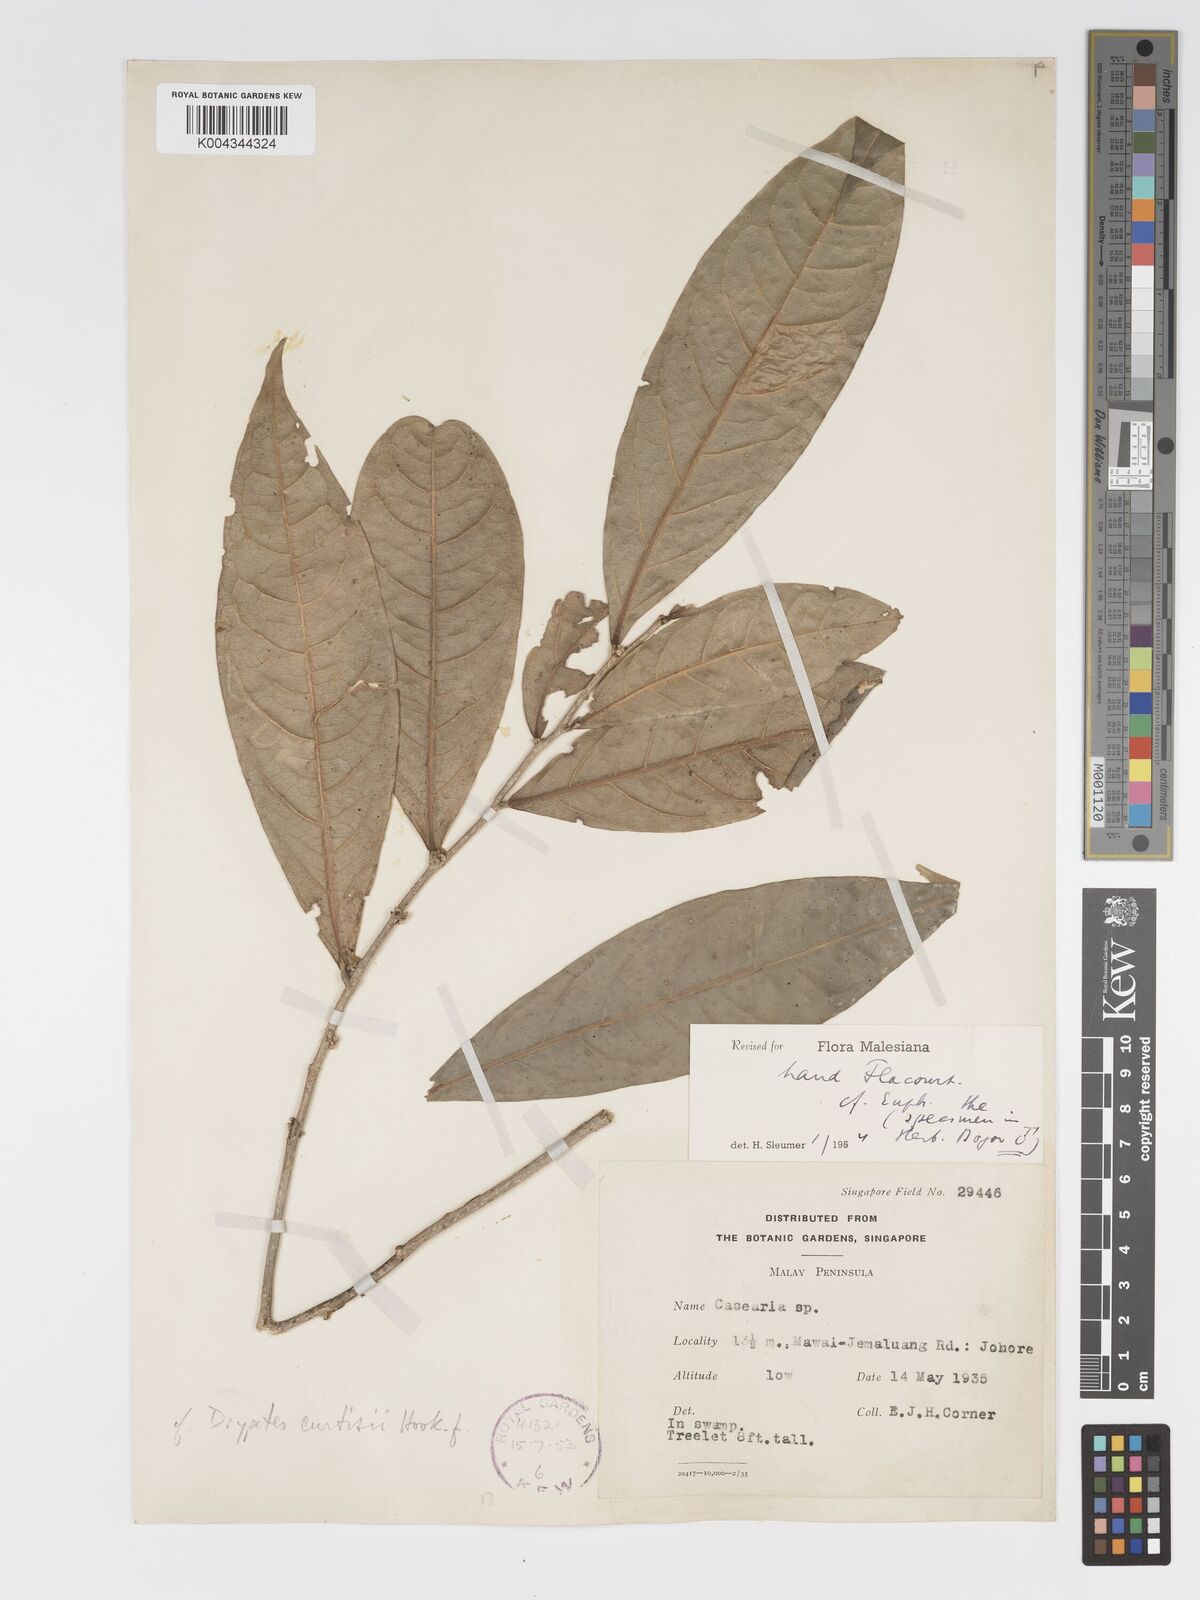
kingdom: Plantae
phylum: Tracheophyta
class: Magnoliopsida
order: Malpighiales
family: Putranjivaceae
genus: Drypetes
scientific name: Drypetes curtisii
